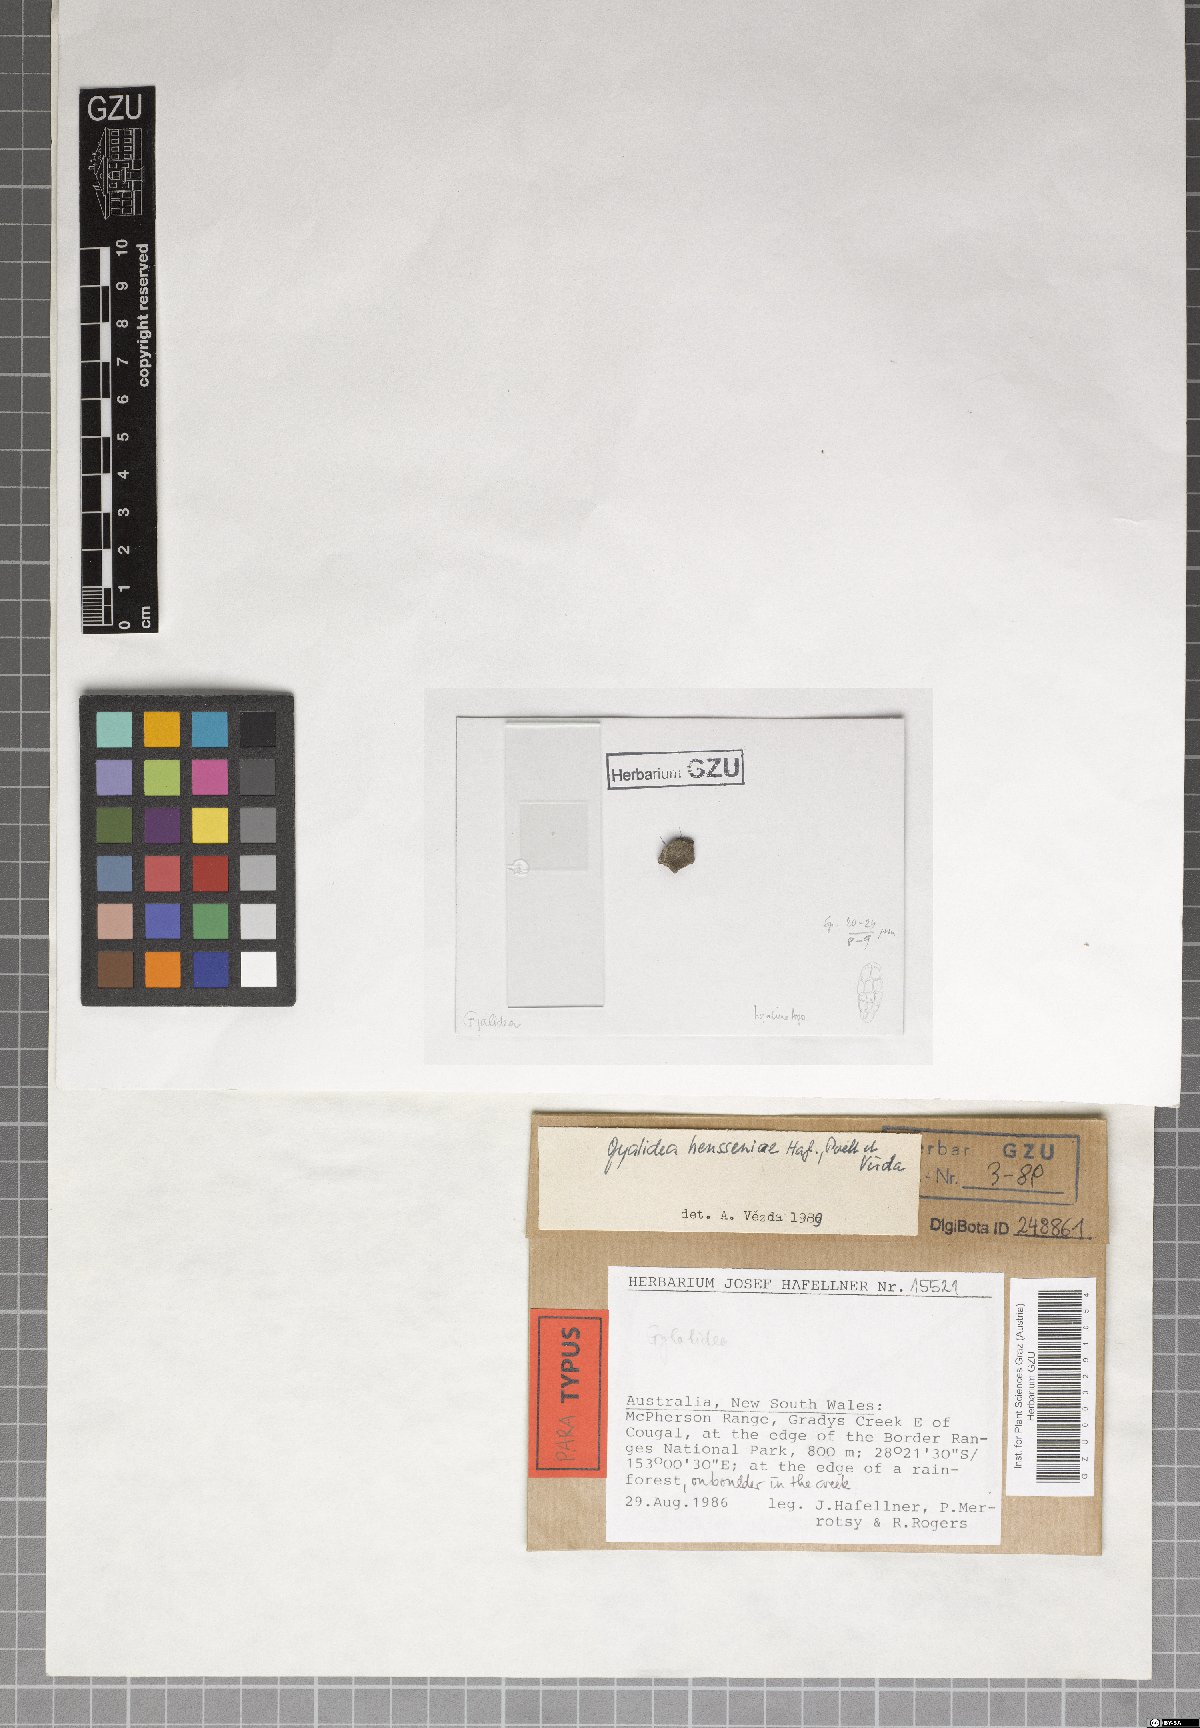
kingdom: Fungi
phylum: Ascomycota
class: Lecanoromycetes
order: Ostropales
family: Gomphillaceae
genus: Gyalidea
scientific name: Gyalidea hensseniae
